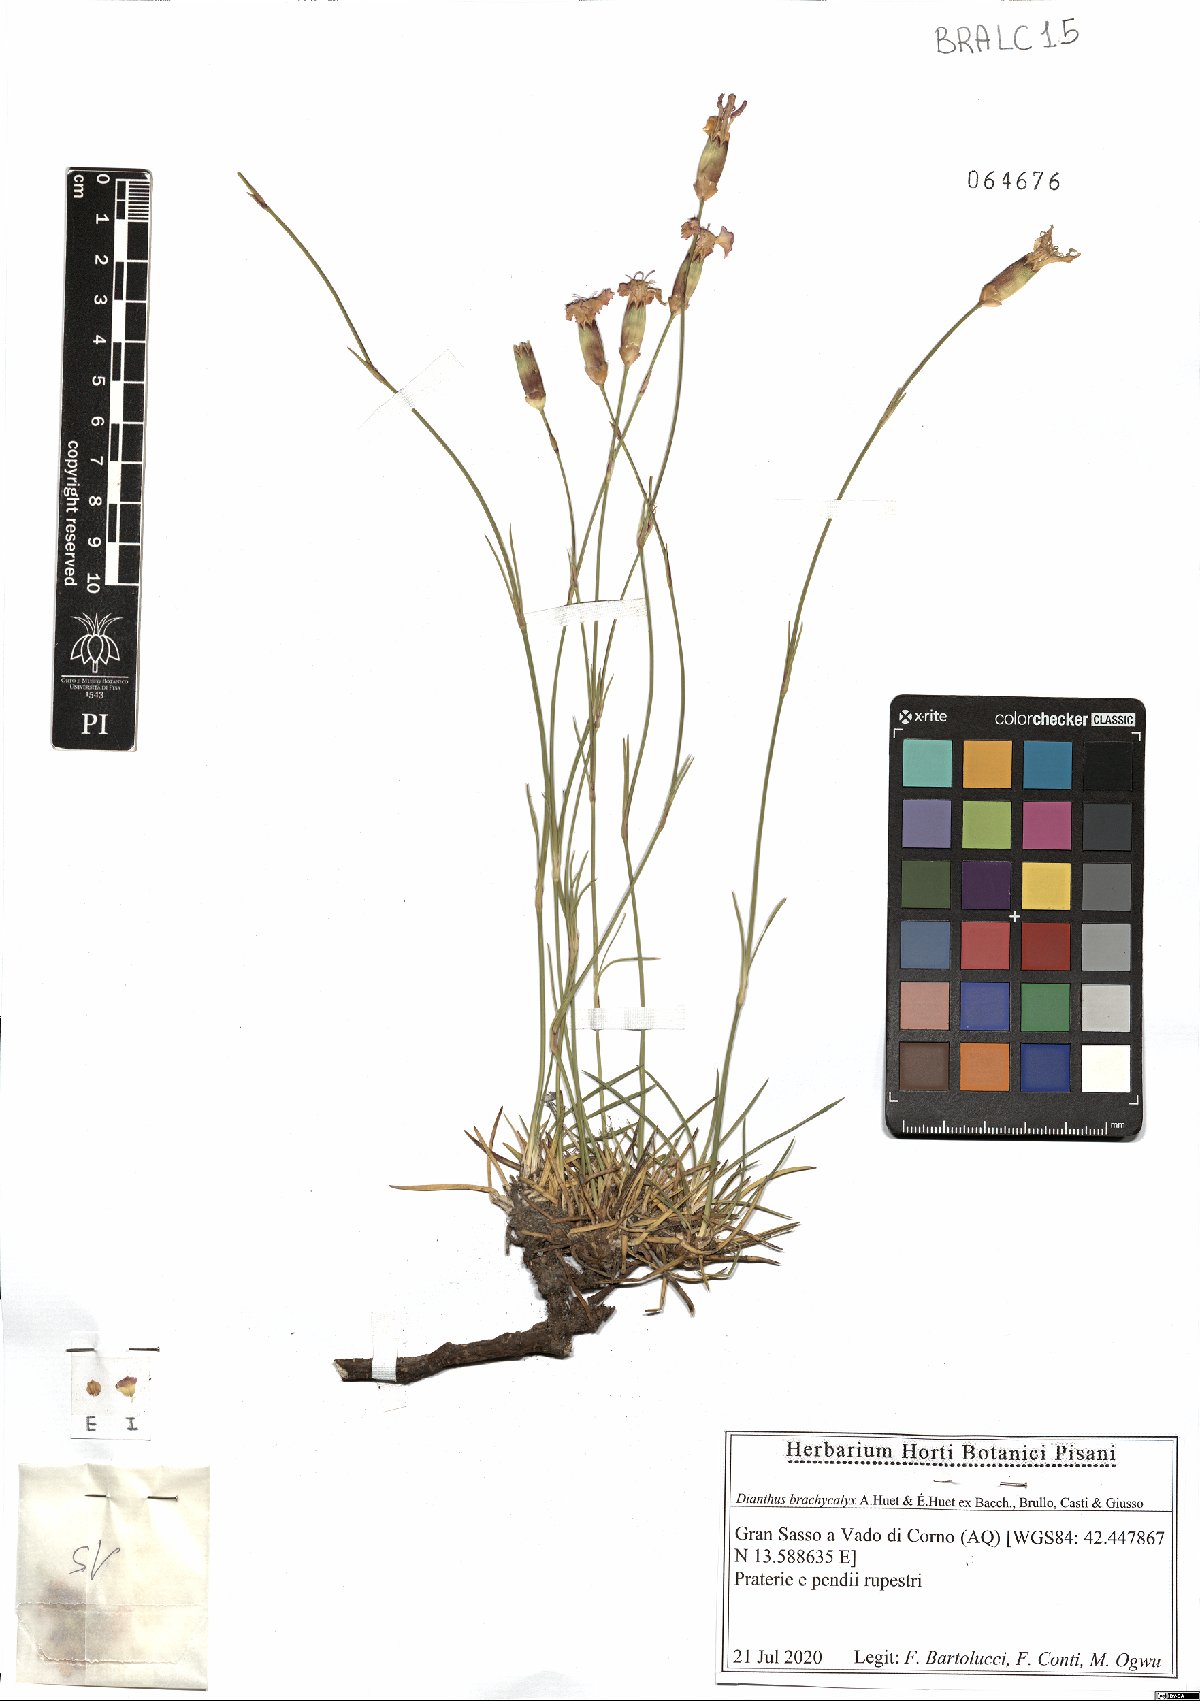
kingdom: Plantae
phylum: Tracheophyta
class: Magnoliopsida
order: Caryophyllales
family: Caryophyllaceae
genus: Dianthus
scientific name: Dianthus brachycalyx
